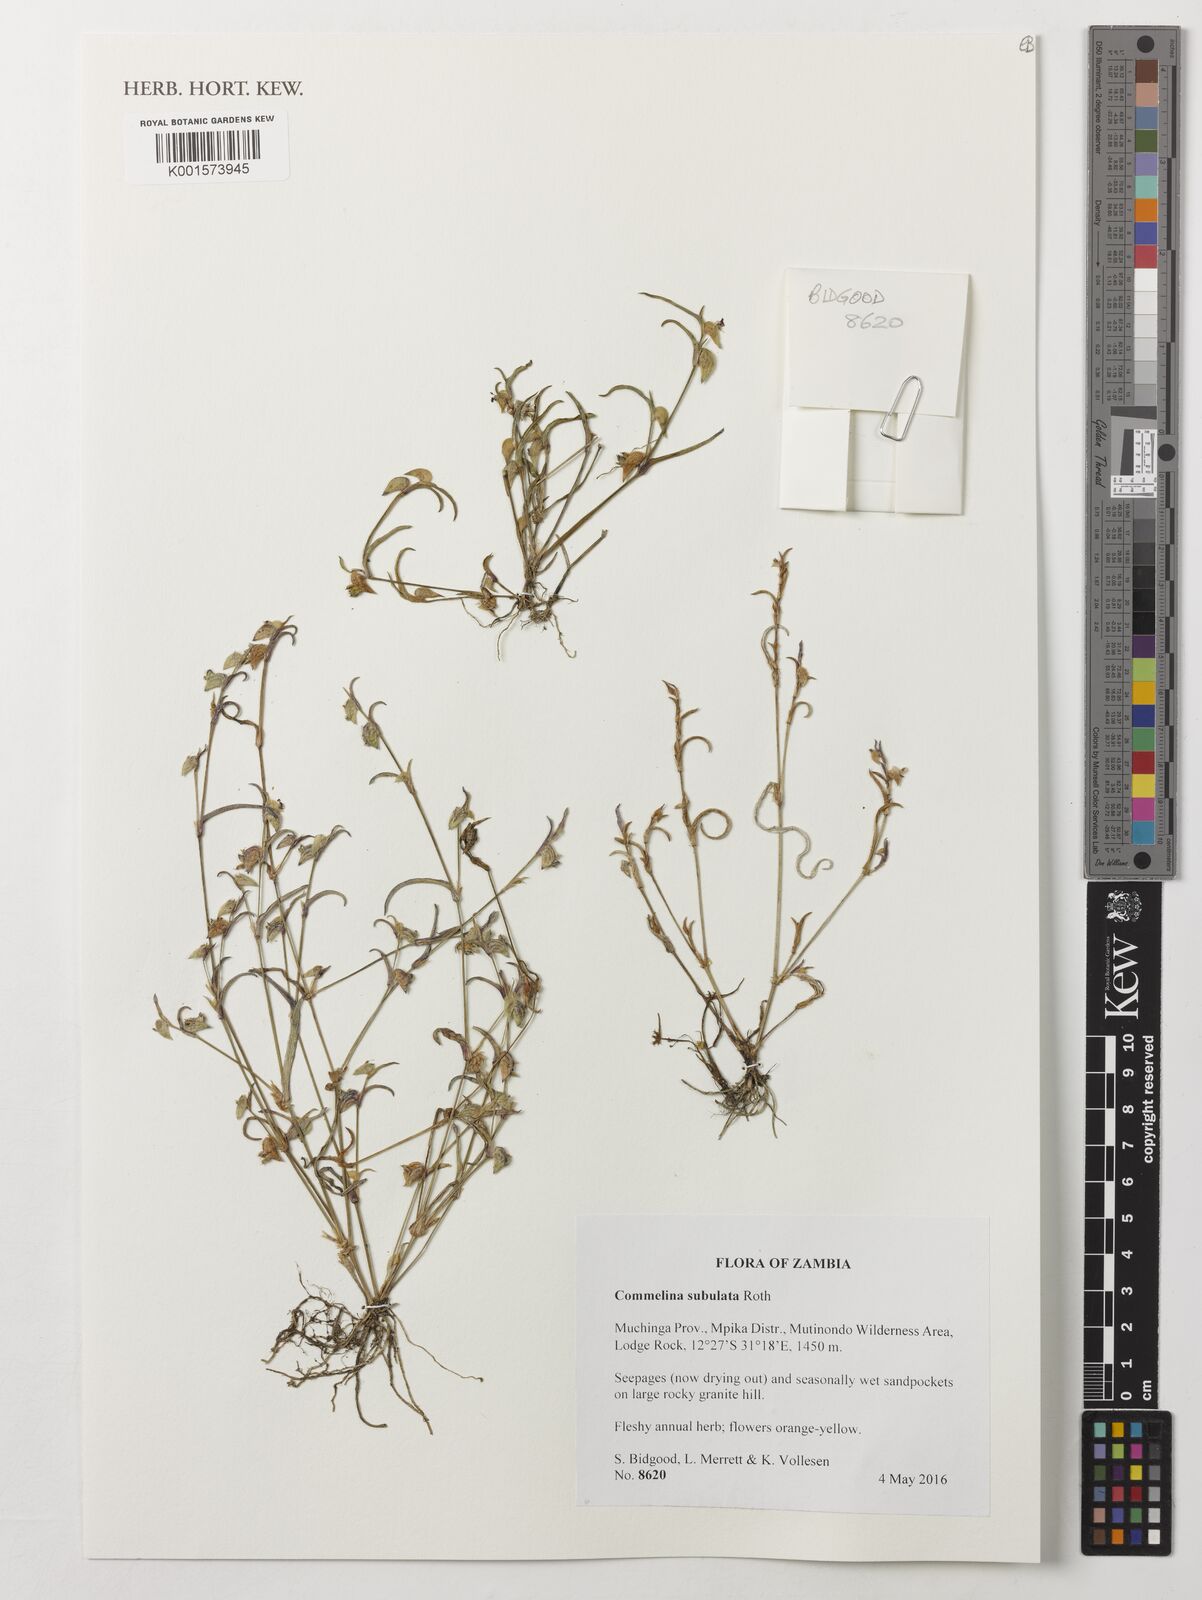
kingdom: Plantae
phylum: Tracheophyta
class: Liliopsida
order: Commelinales
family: Commelinaceae
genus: Commelina
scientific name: Commelina subulata
